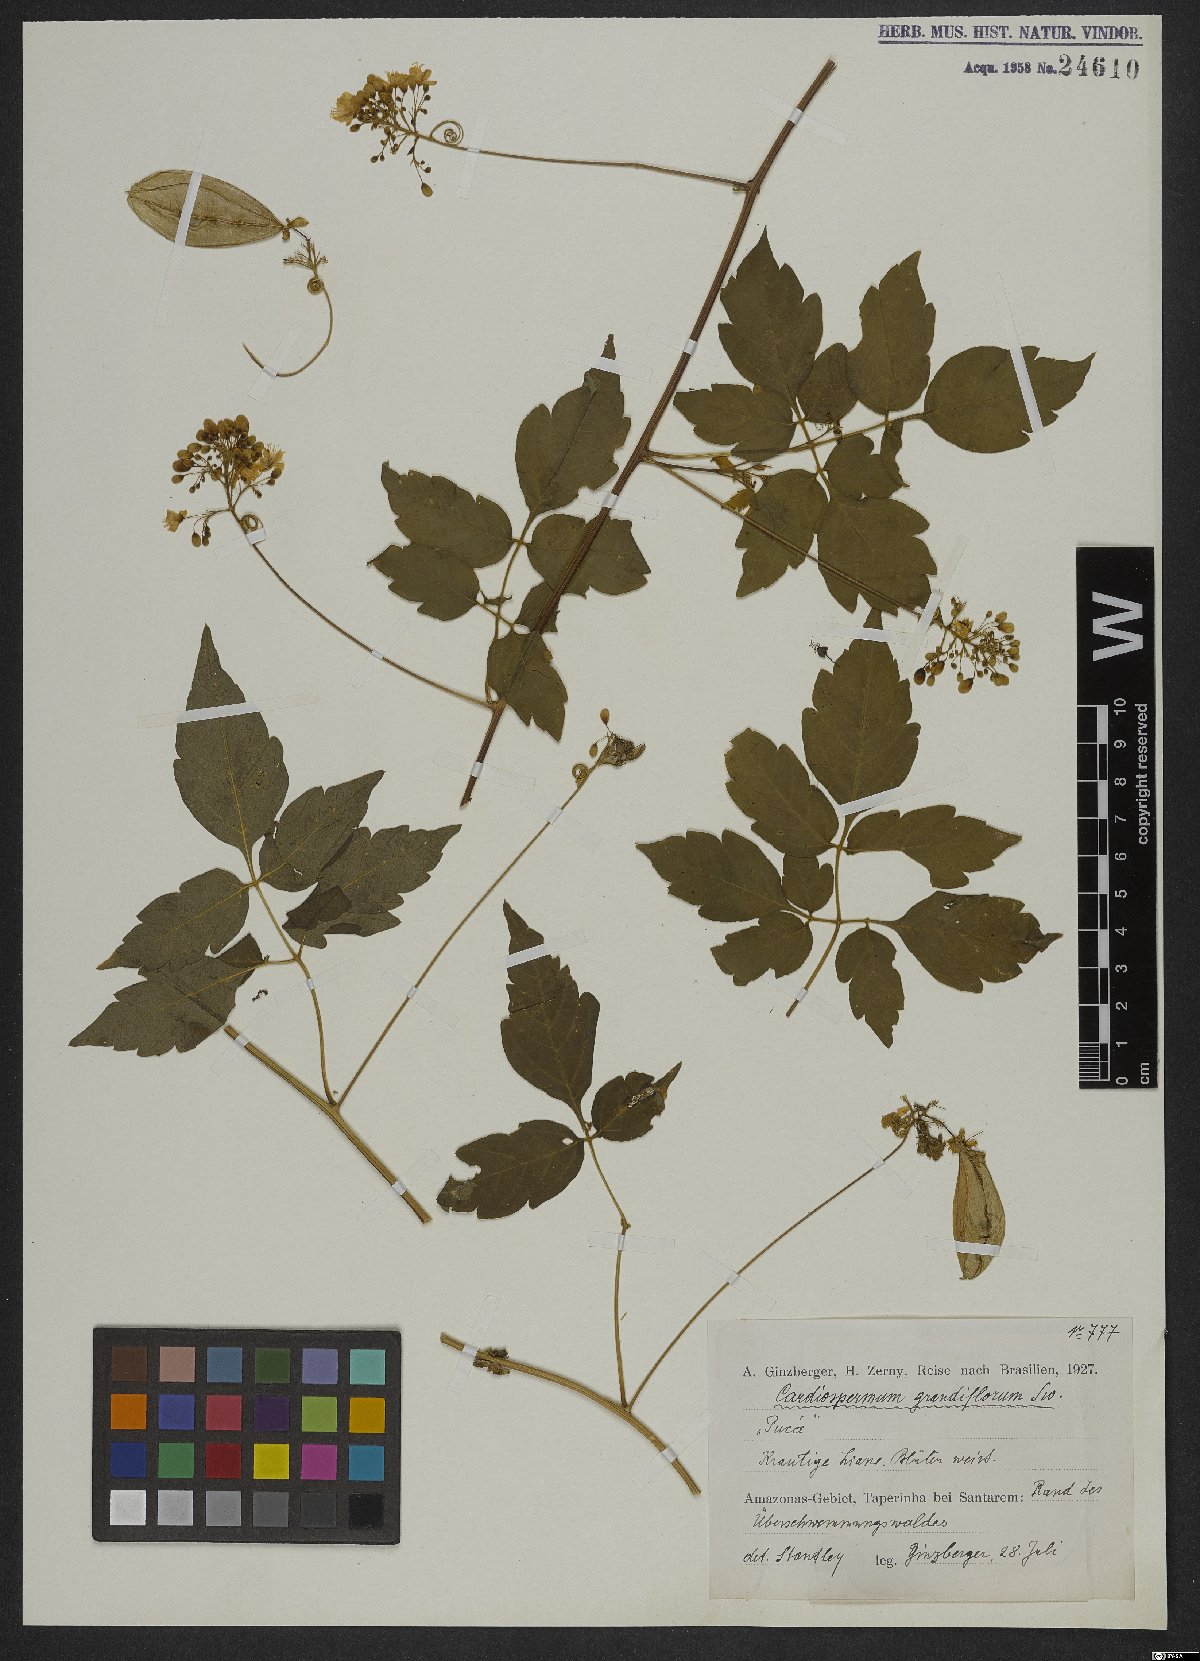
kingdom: Plantae
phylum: Tracheophyta
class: Magnoliopsida
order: Sapindales
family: Sapindaceae
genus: Cardiospermum
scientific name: Cardiospermum grandiflorum
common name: Balloon vine
